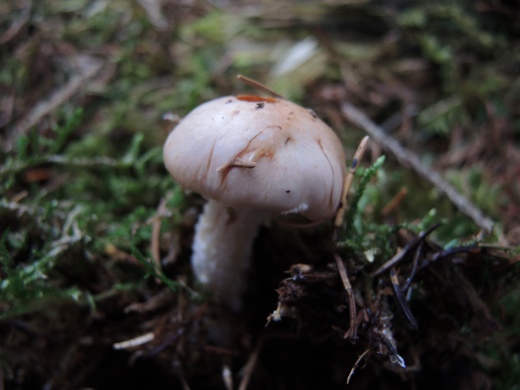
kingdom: Fungi
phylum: Basidiomycota
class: Agaricomycetes
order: Agaricales
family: Strophariaceae
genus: Pholiota
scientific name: Pholiota lenta
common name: løv-skælhat
